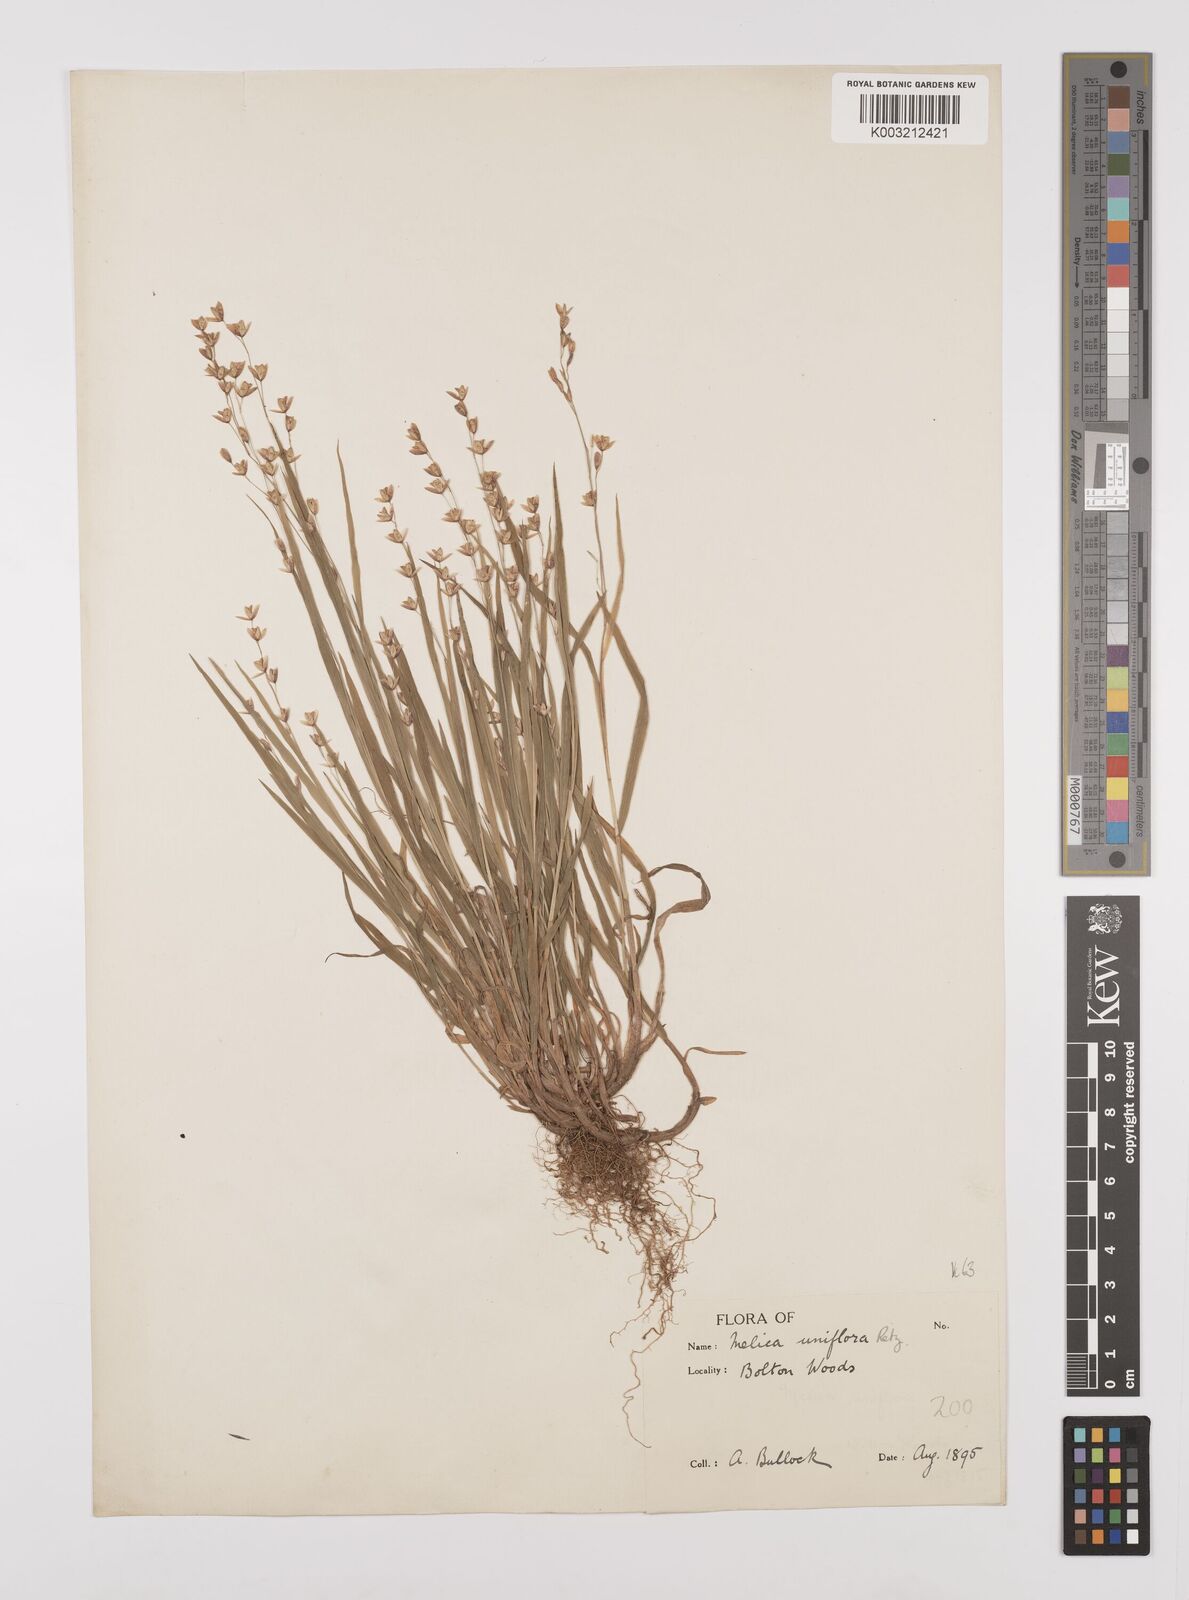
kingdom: Plantae
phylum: Tracheophyta
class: Liliopsida
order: Poales
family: Poaceae
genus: Melica
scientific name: Melica uniflora
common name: Wood melick
